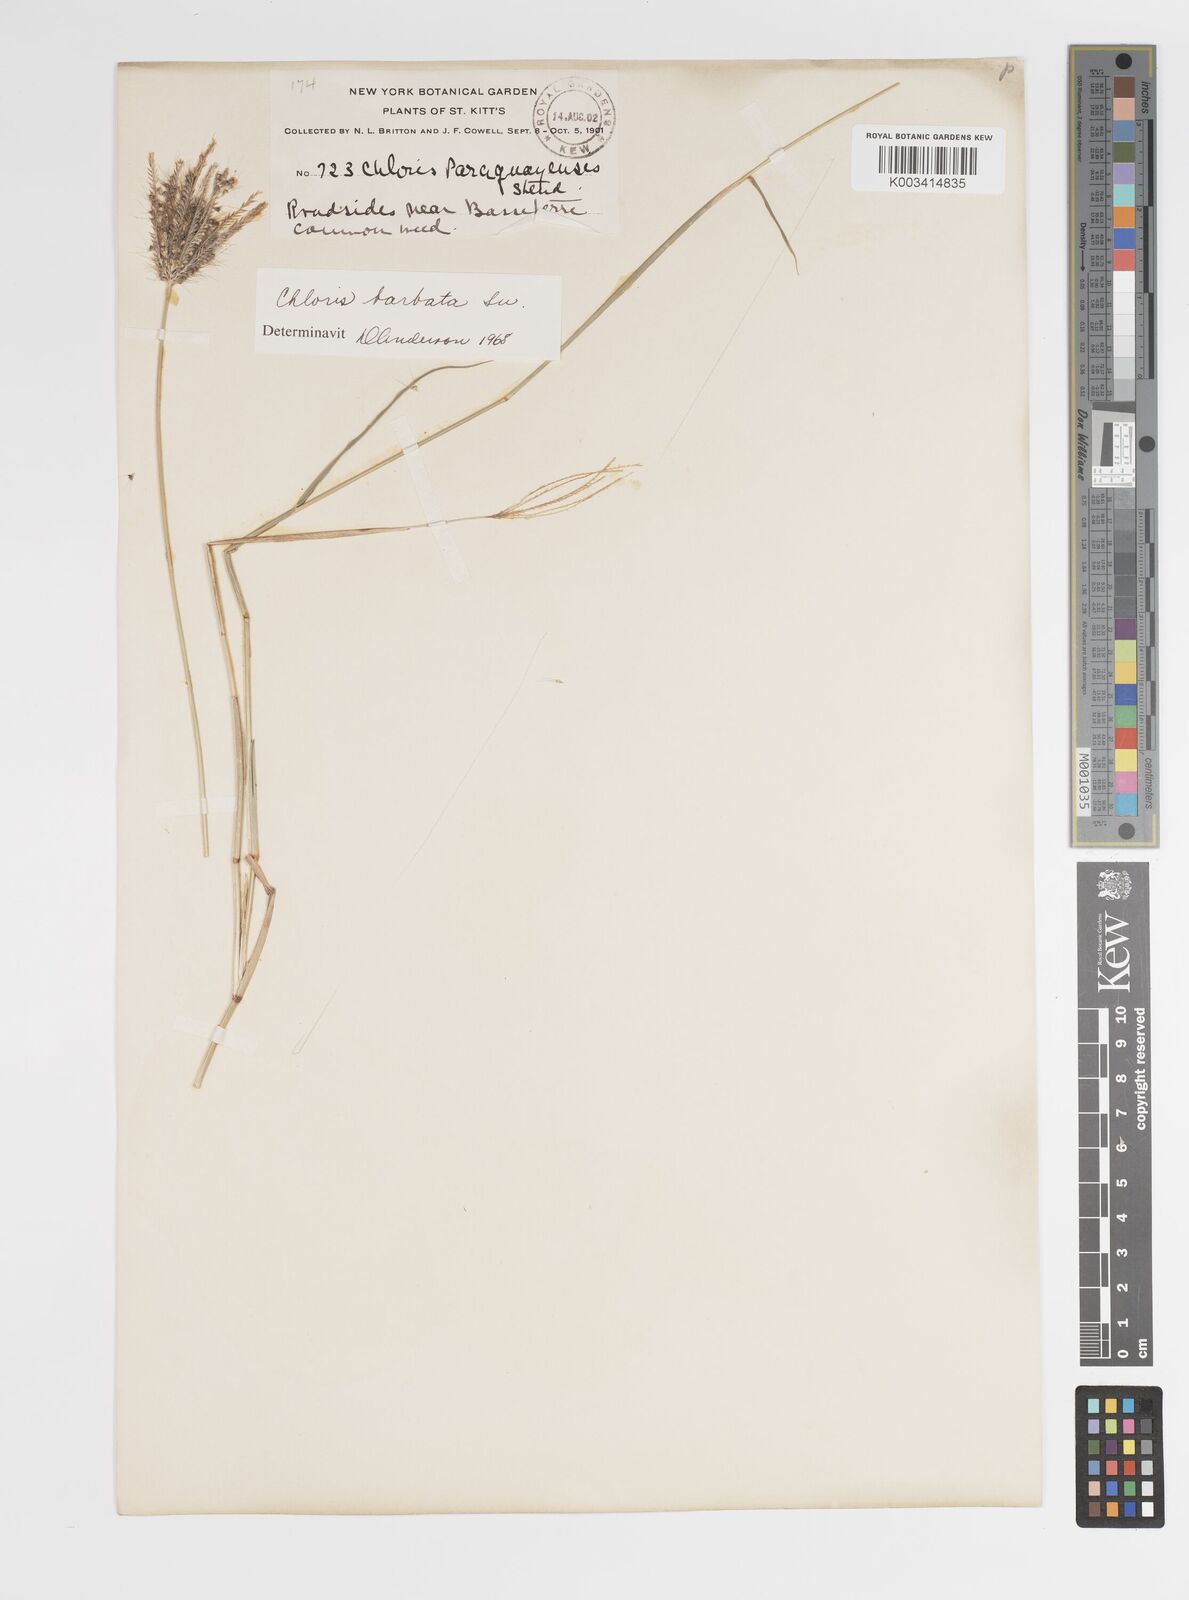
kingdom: Plantae
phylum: Tracheophyta
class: Liliopsida
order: Poales
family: Poaceae
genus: Chloris
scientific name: Chloris barbata
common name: Swollen fingergrass
